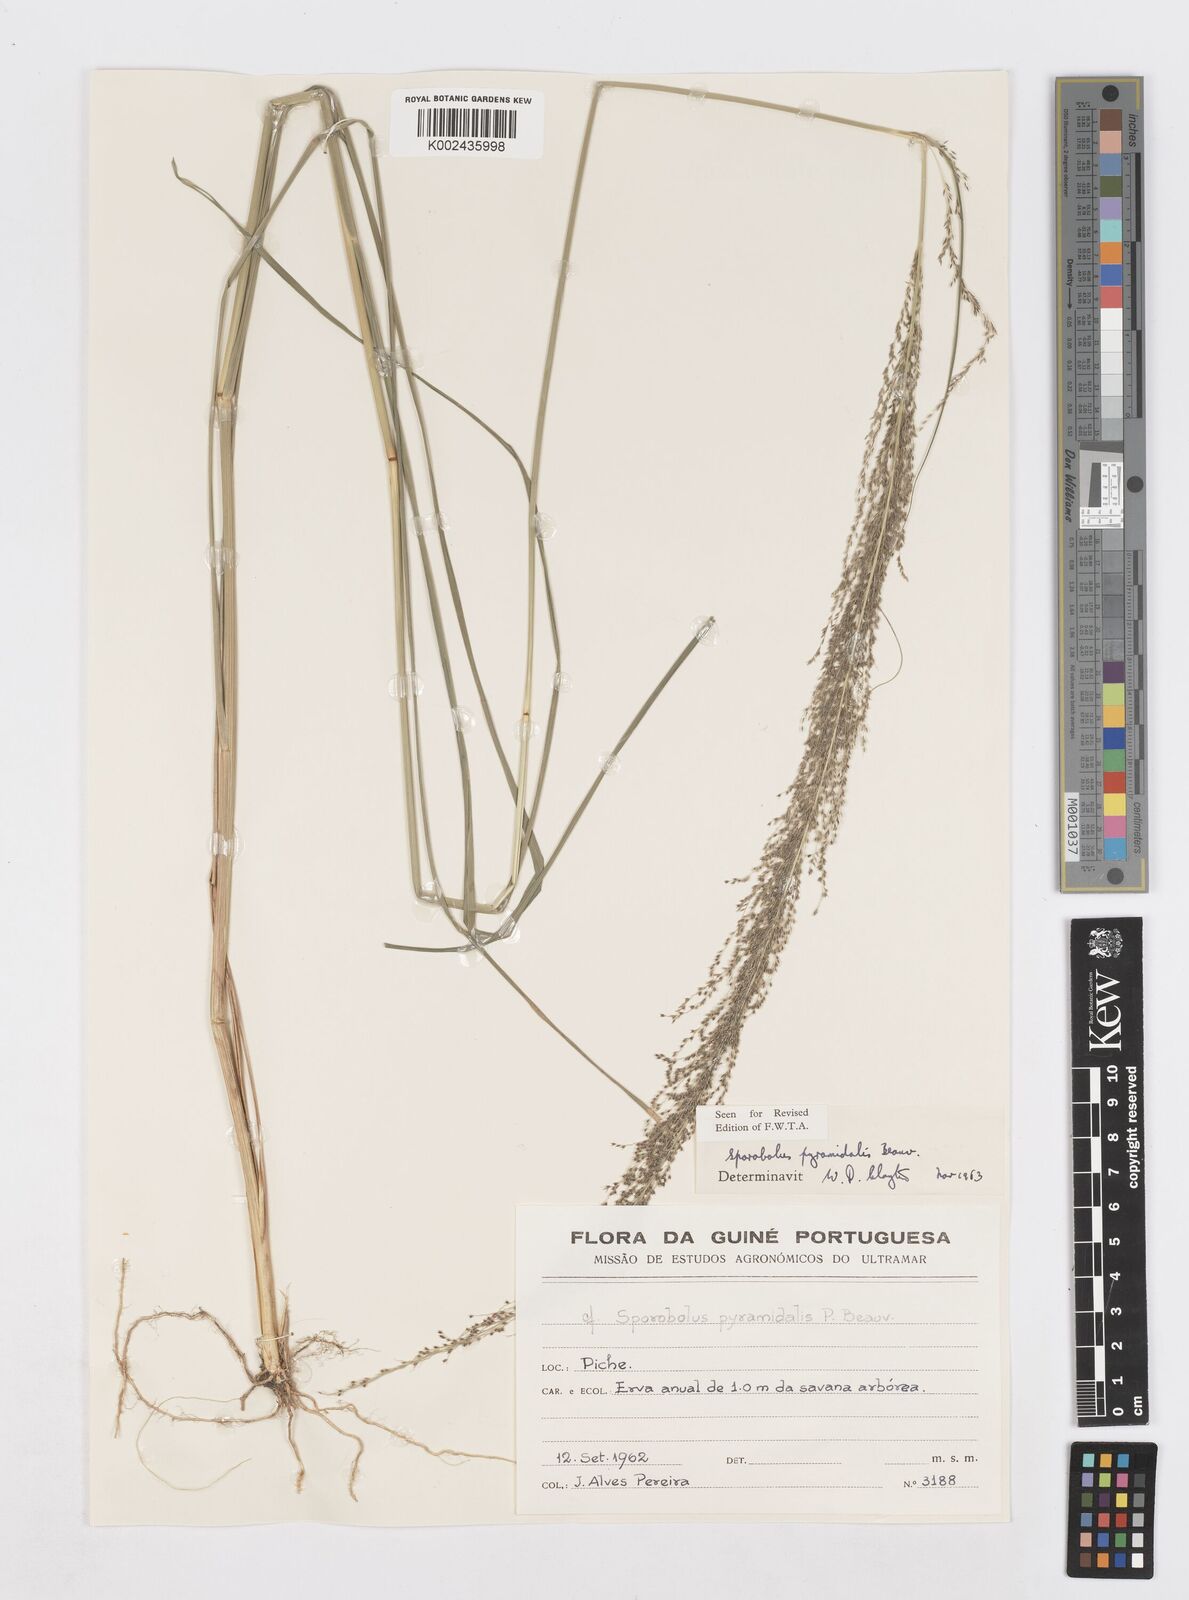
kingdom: Plantae
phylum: Tracheophyta
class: Liliopsida
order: Poales
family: Poaceae
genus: Sporobolus
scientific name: Sporobolus pyramidalis
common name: West indian dropseed
